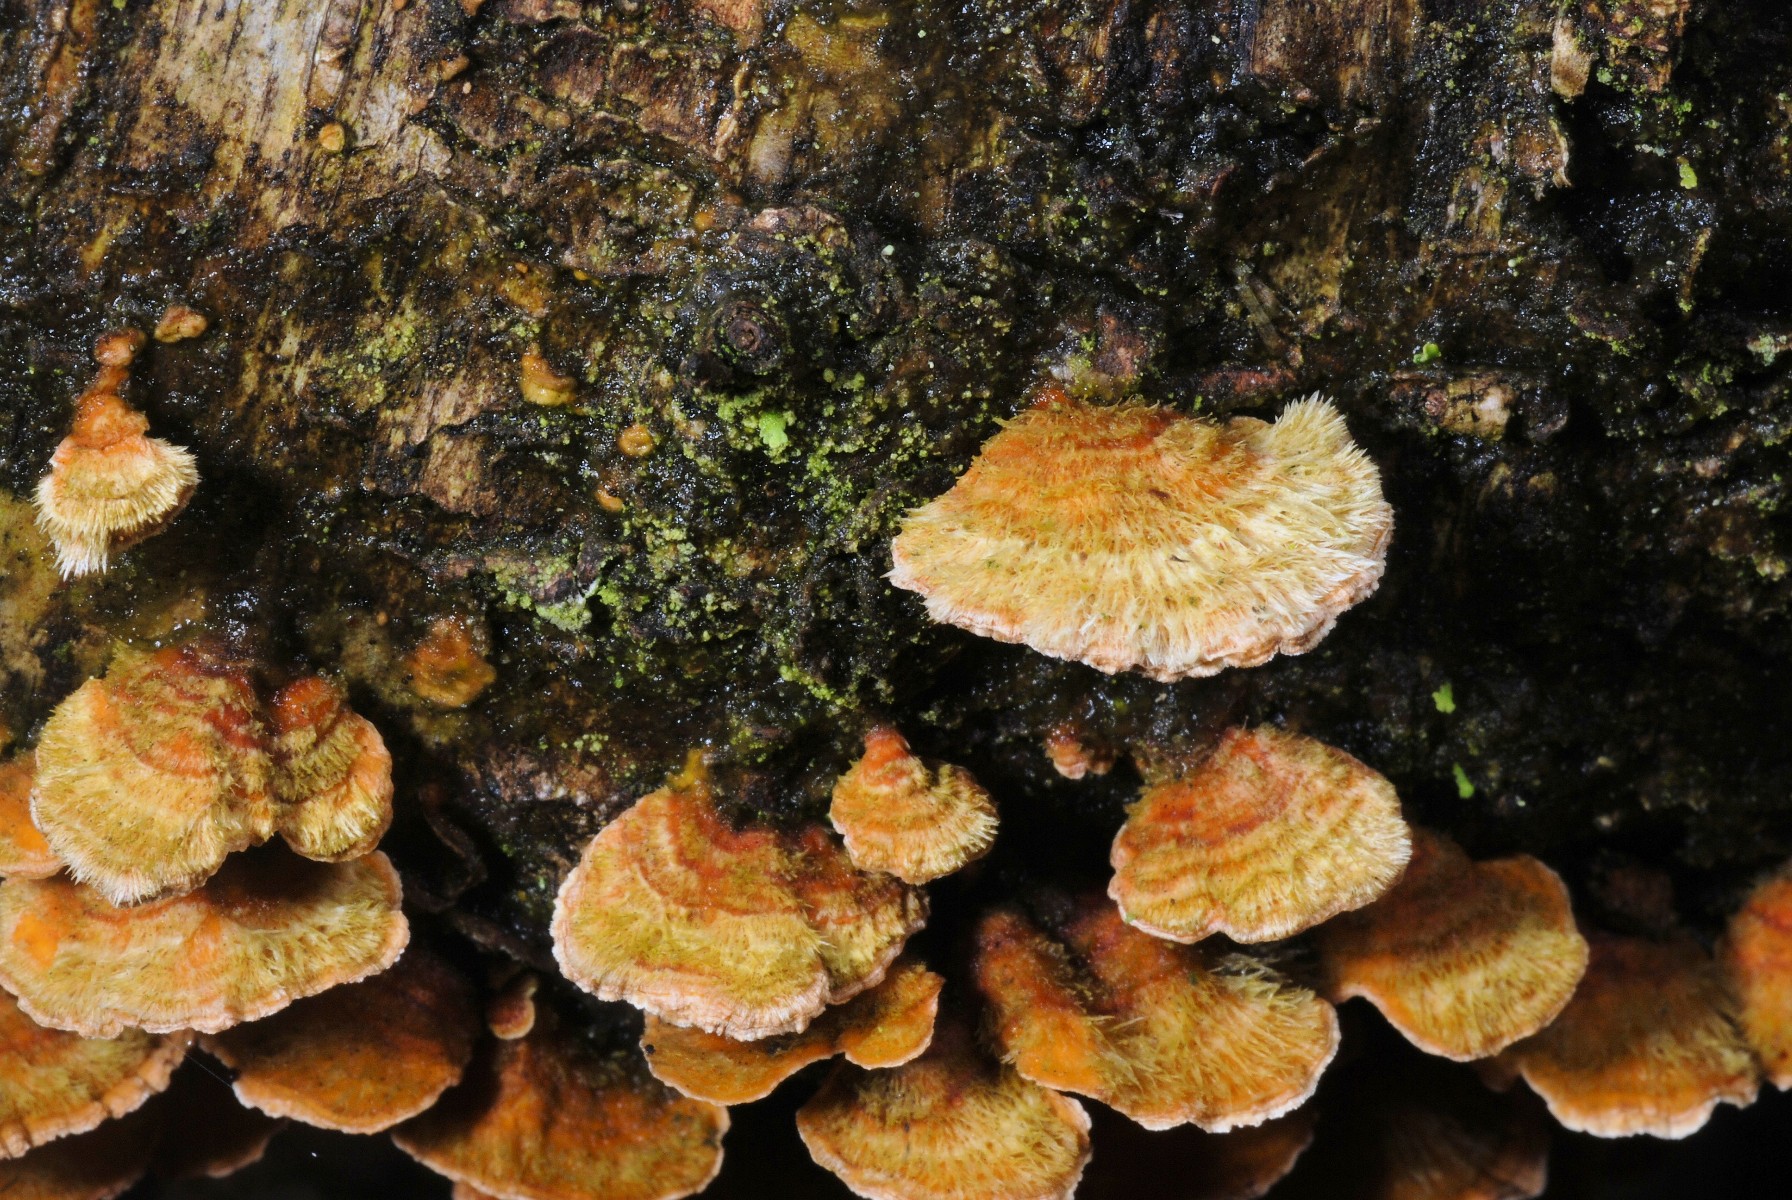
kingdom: Fungi
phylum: Basidiomycota
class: Agaricomycetes
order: Polyporales
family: Polyporaceae
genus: Trametes
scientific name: Trametes hirsuta
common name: håret læderporesvamp
